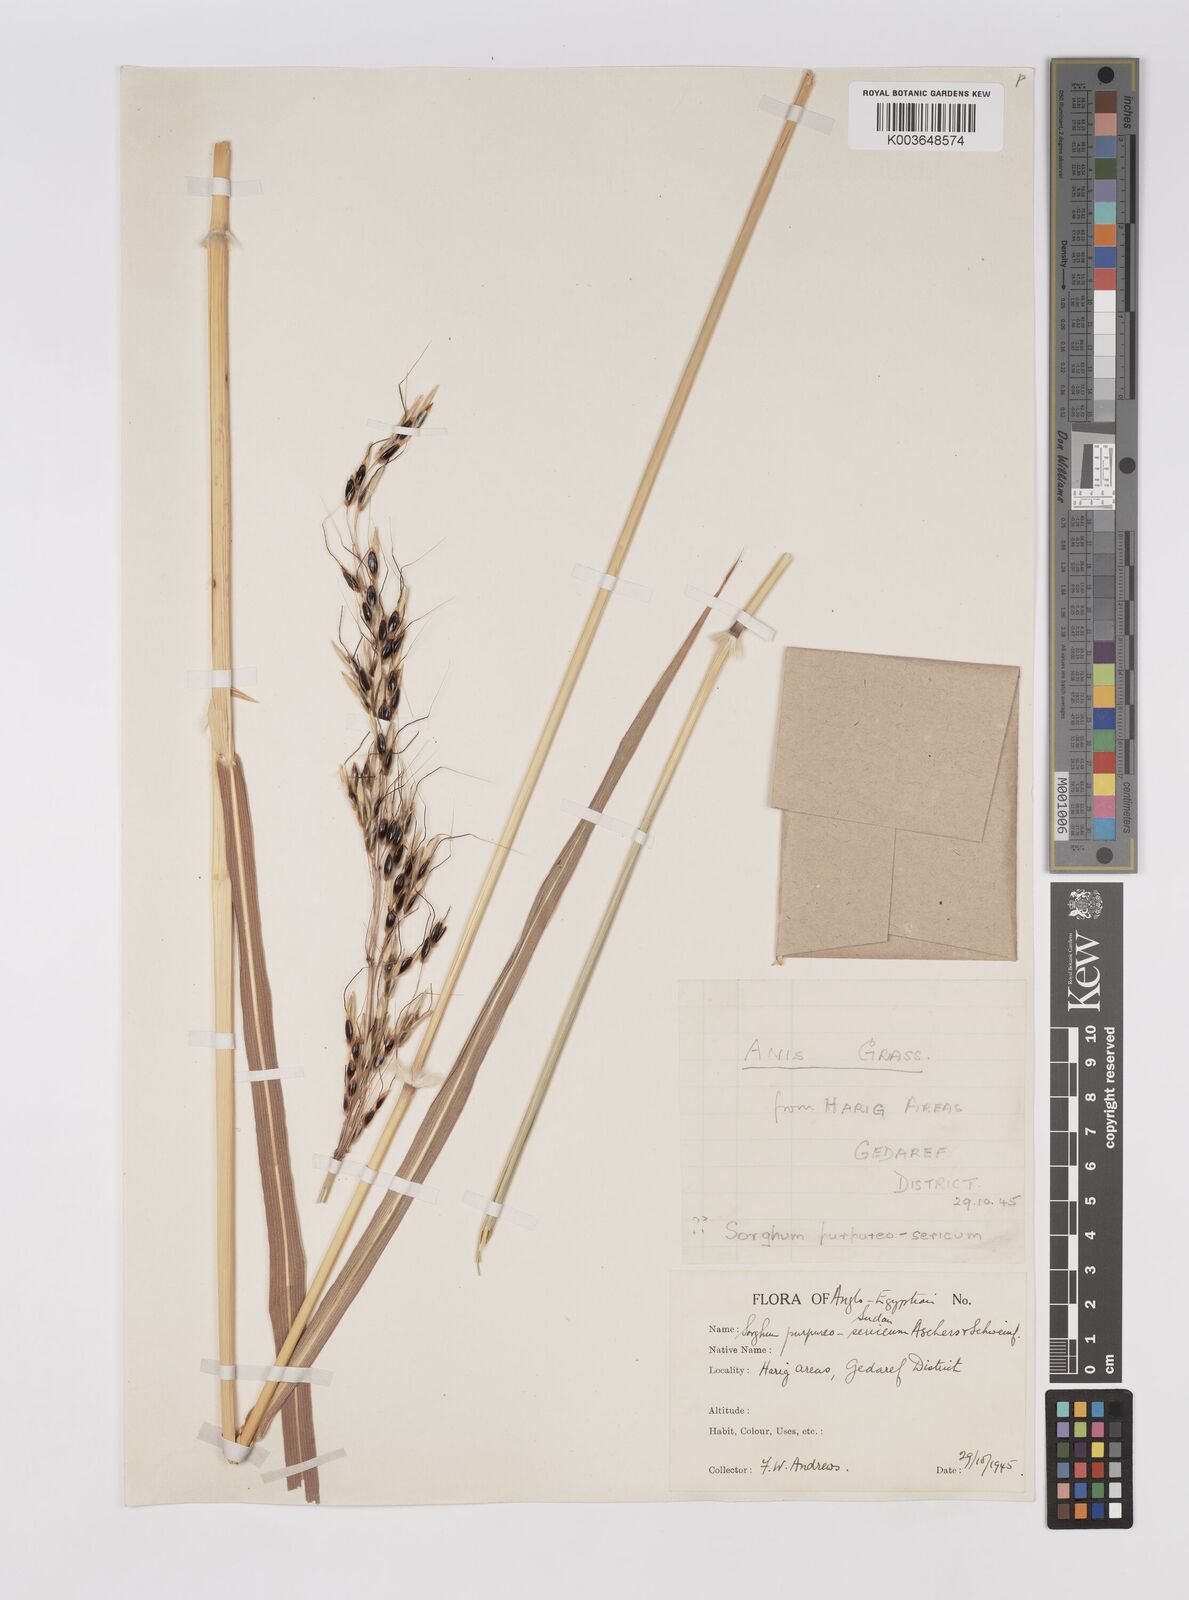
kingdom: Plantae
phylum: Tracheophyta
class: Liliopsida
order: Poales
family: Poaceae
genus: Sarga
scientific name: Sarga purpureosericea
